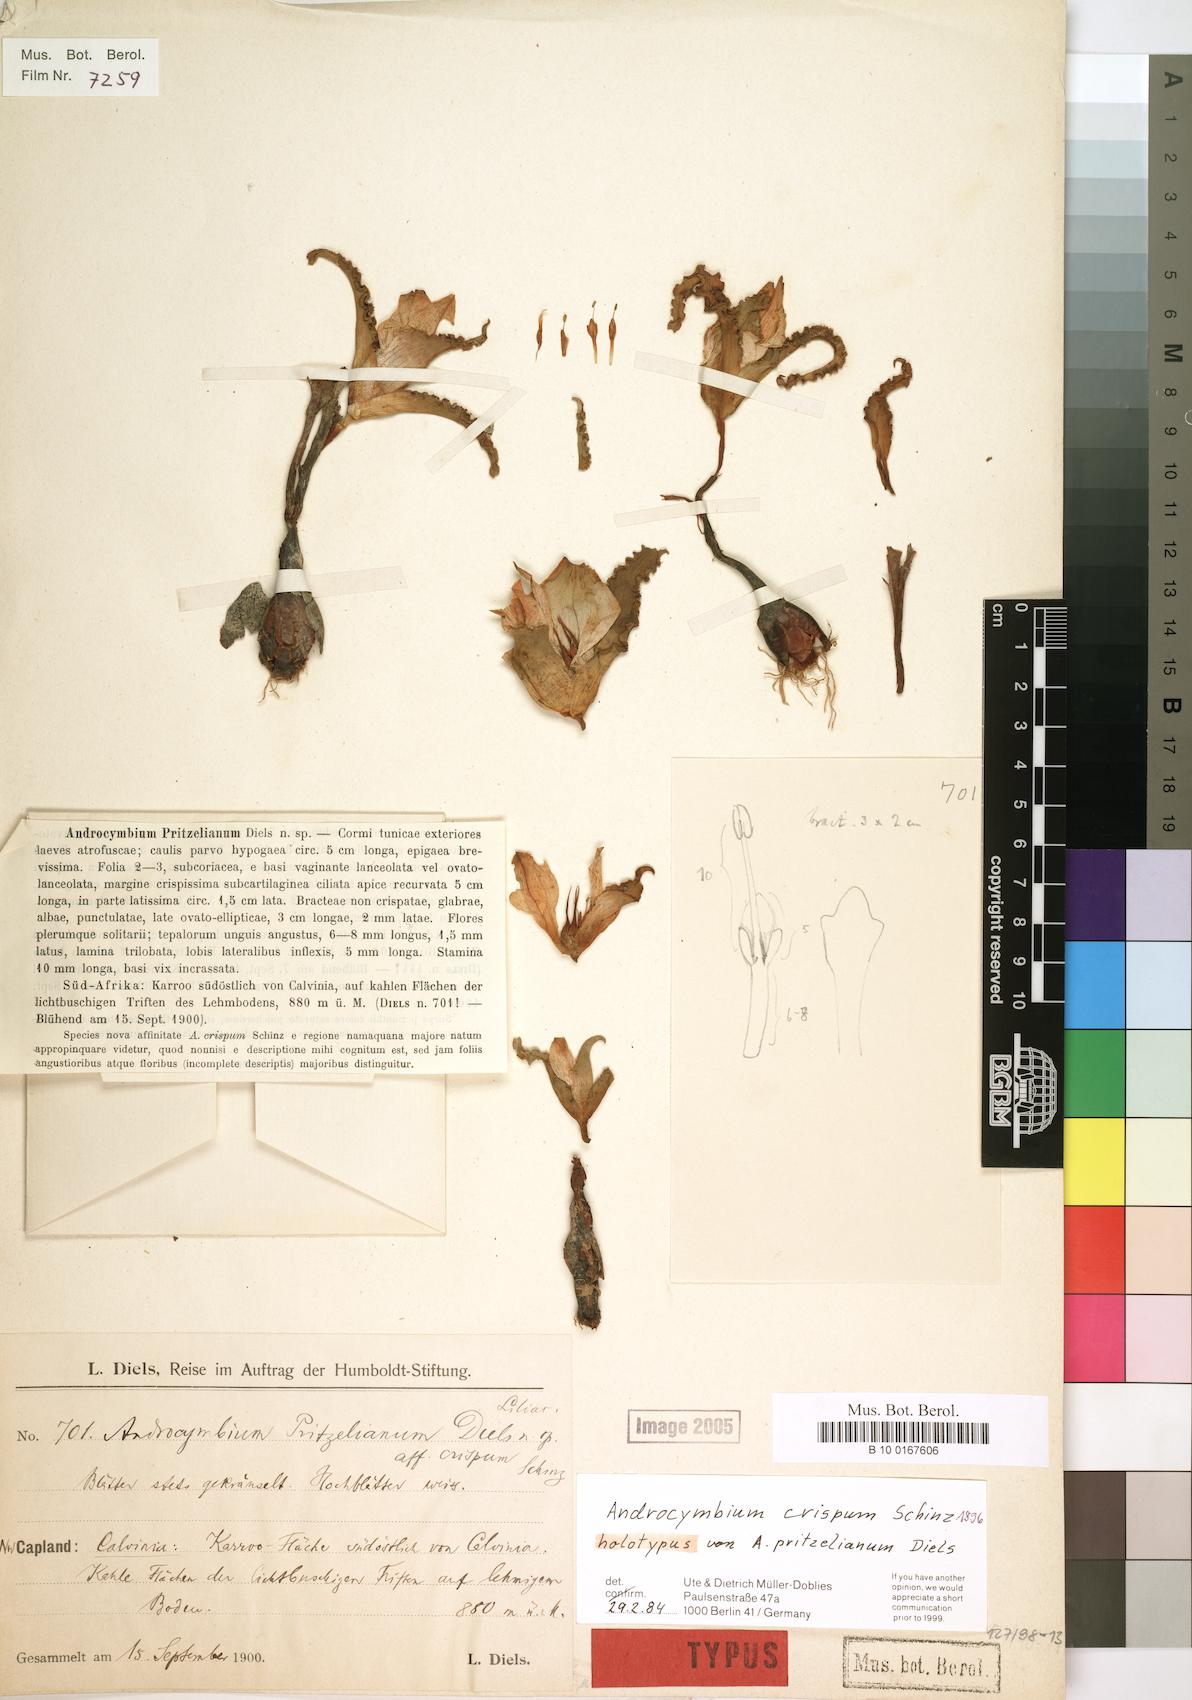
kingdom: Plantae
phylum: Tracheophyta
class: Liliopsida
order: Liliales
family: Colchicaceae
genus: Colchicum
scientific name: Colchicum crispum
